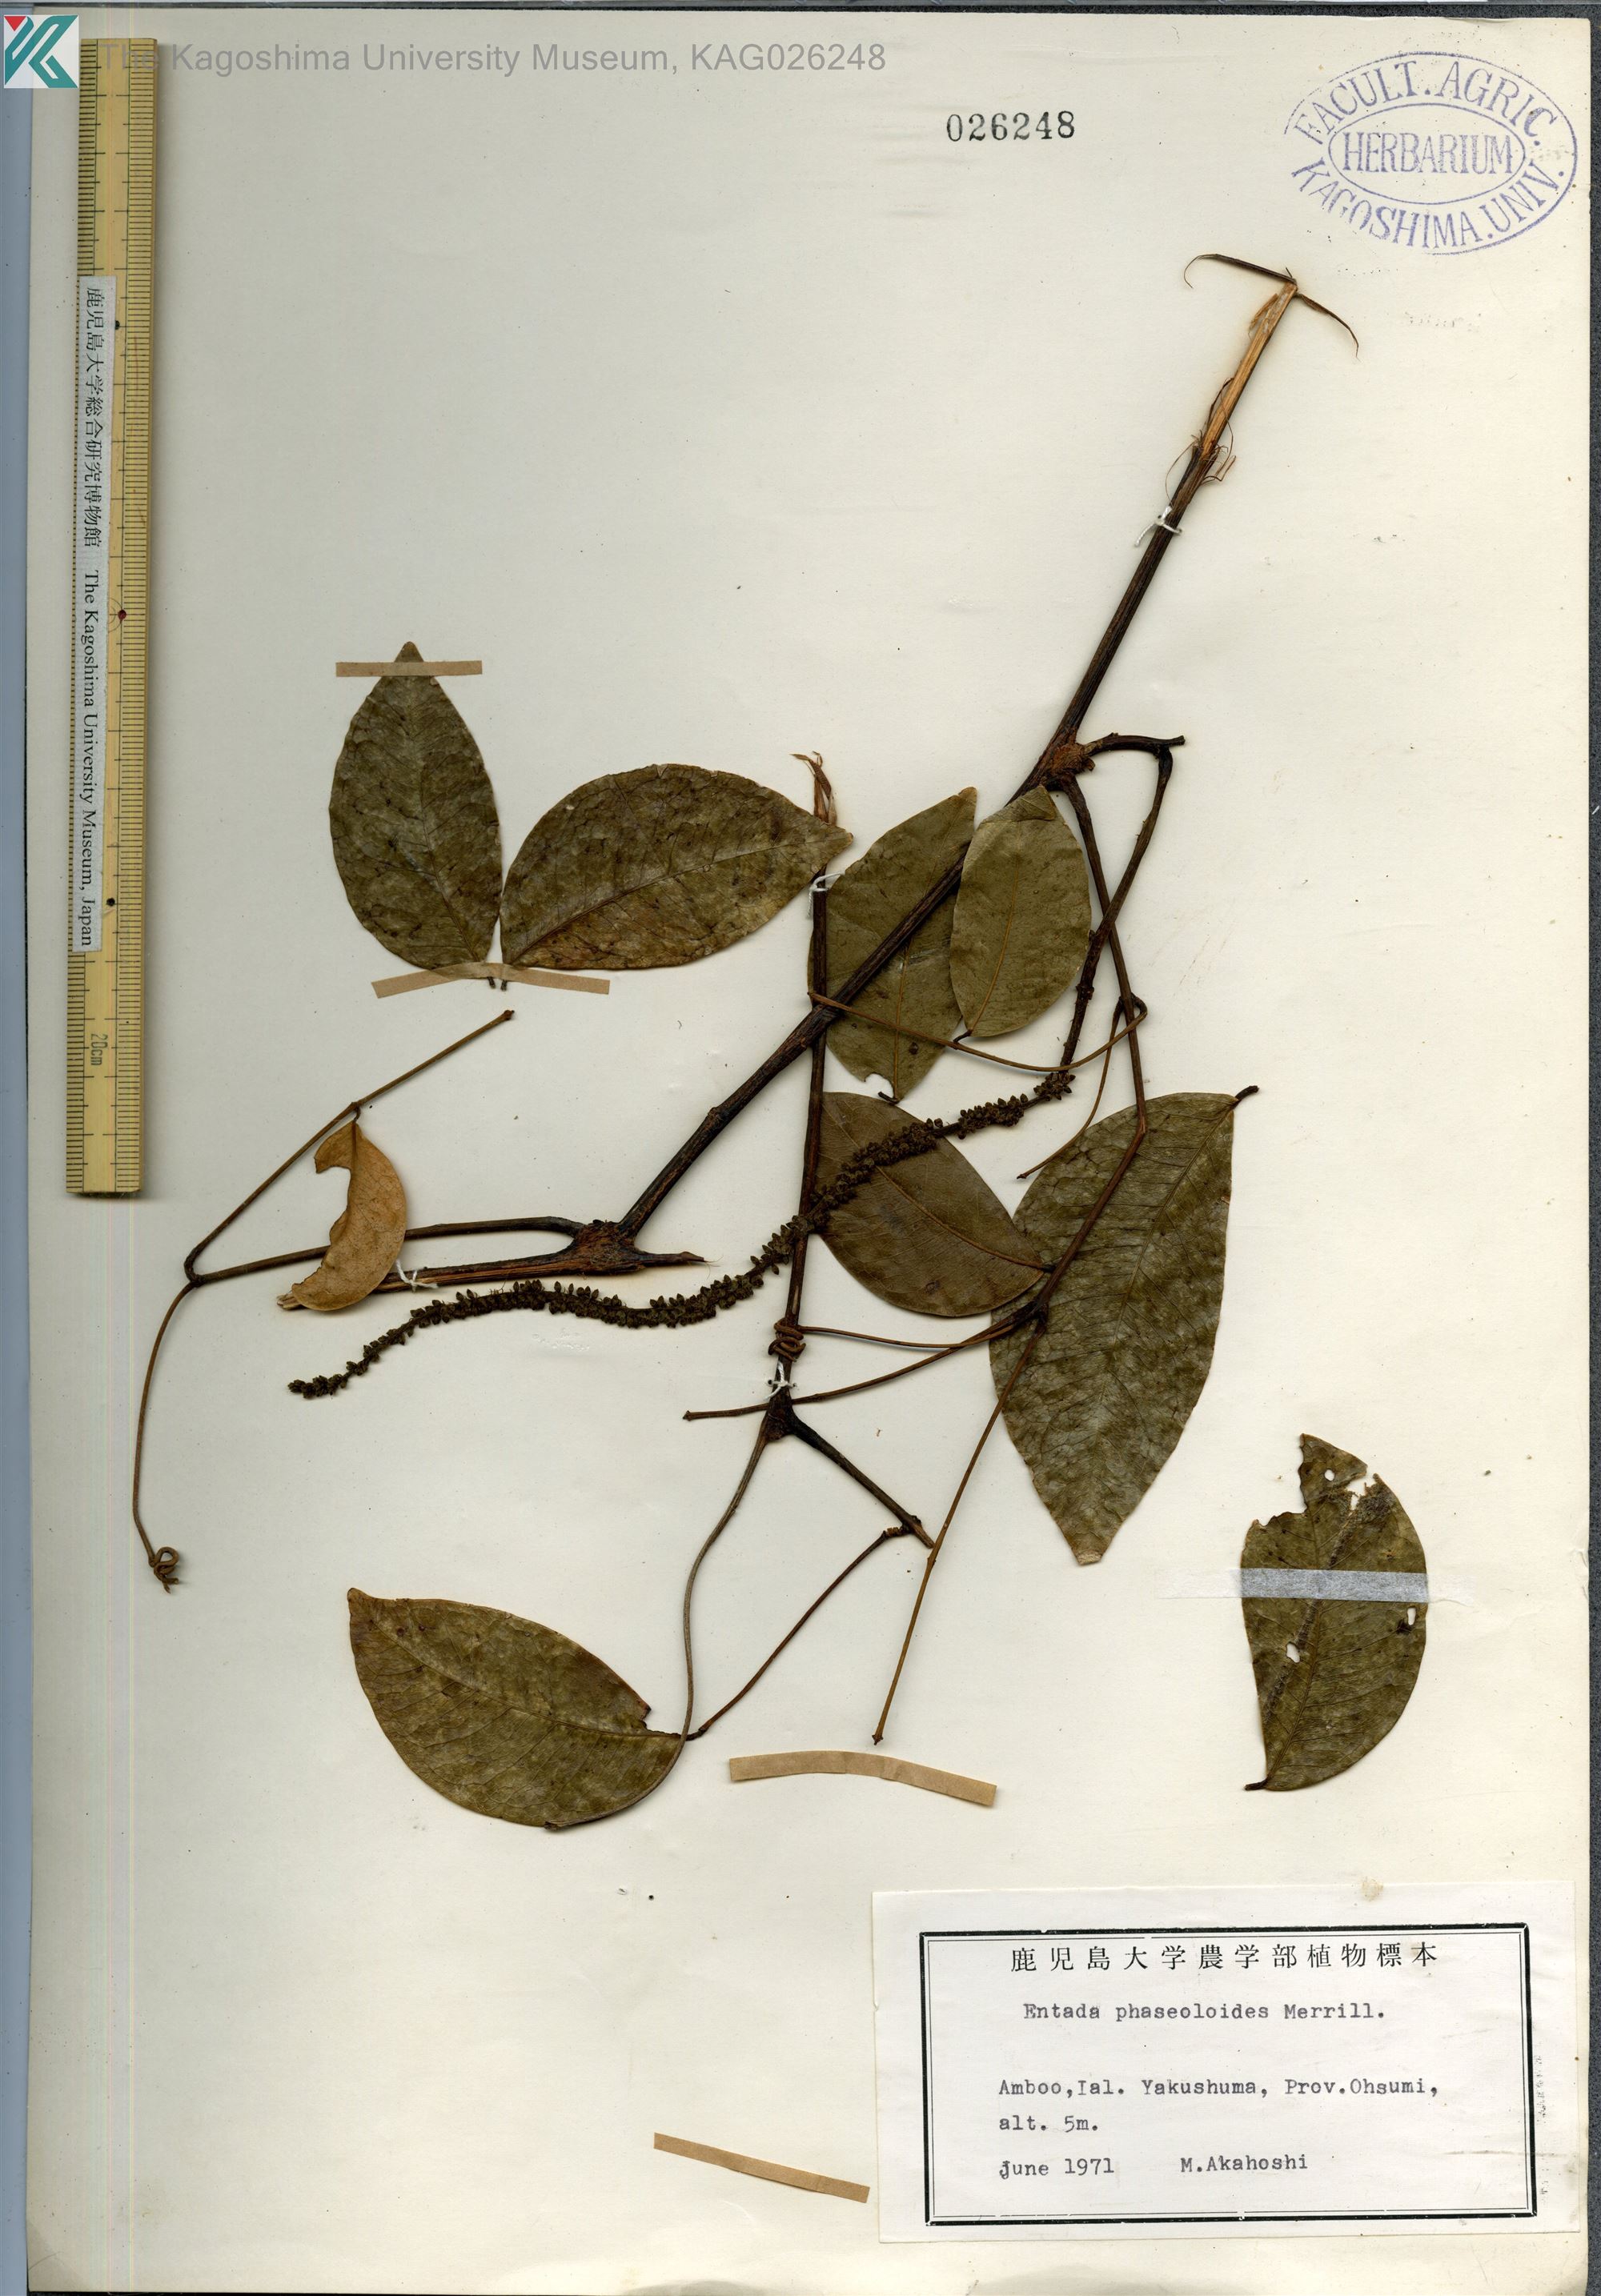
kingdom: Plantae
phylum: Tracheophyta
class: Magnoliopsida
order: Fabales
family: Fabaceae
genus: Entada
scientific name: Entada tonkinensis
